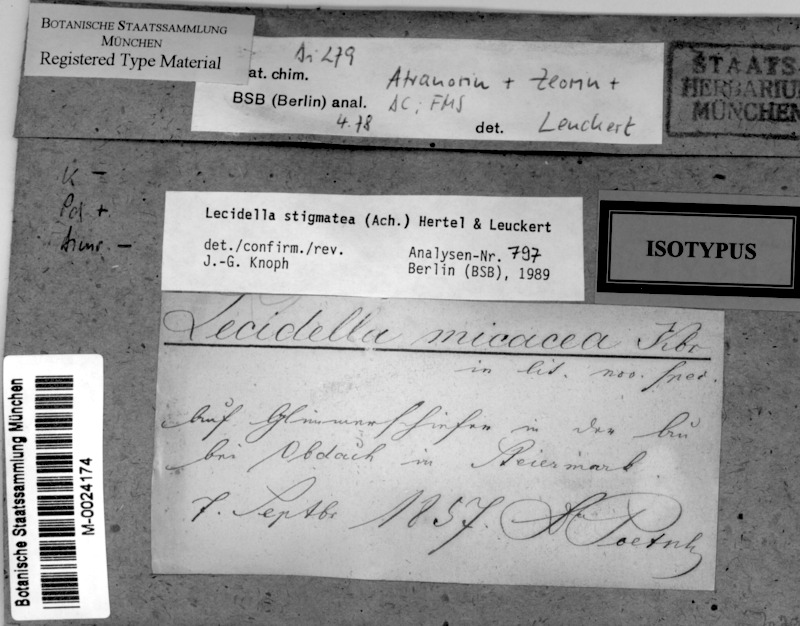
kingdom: Fungi
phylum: Ascomycota
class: Lecanoromycetes
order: Lecanorales
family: Lecanoraceae
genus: Lecidella
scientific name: Lecidella stigmatea
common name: Limestone disc lichen
